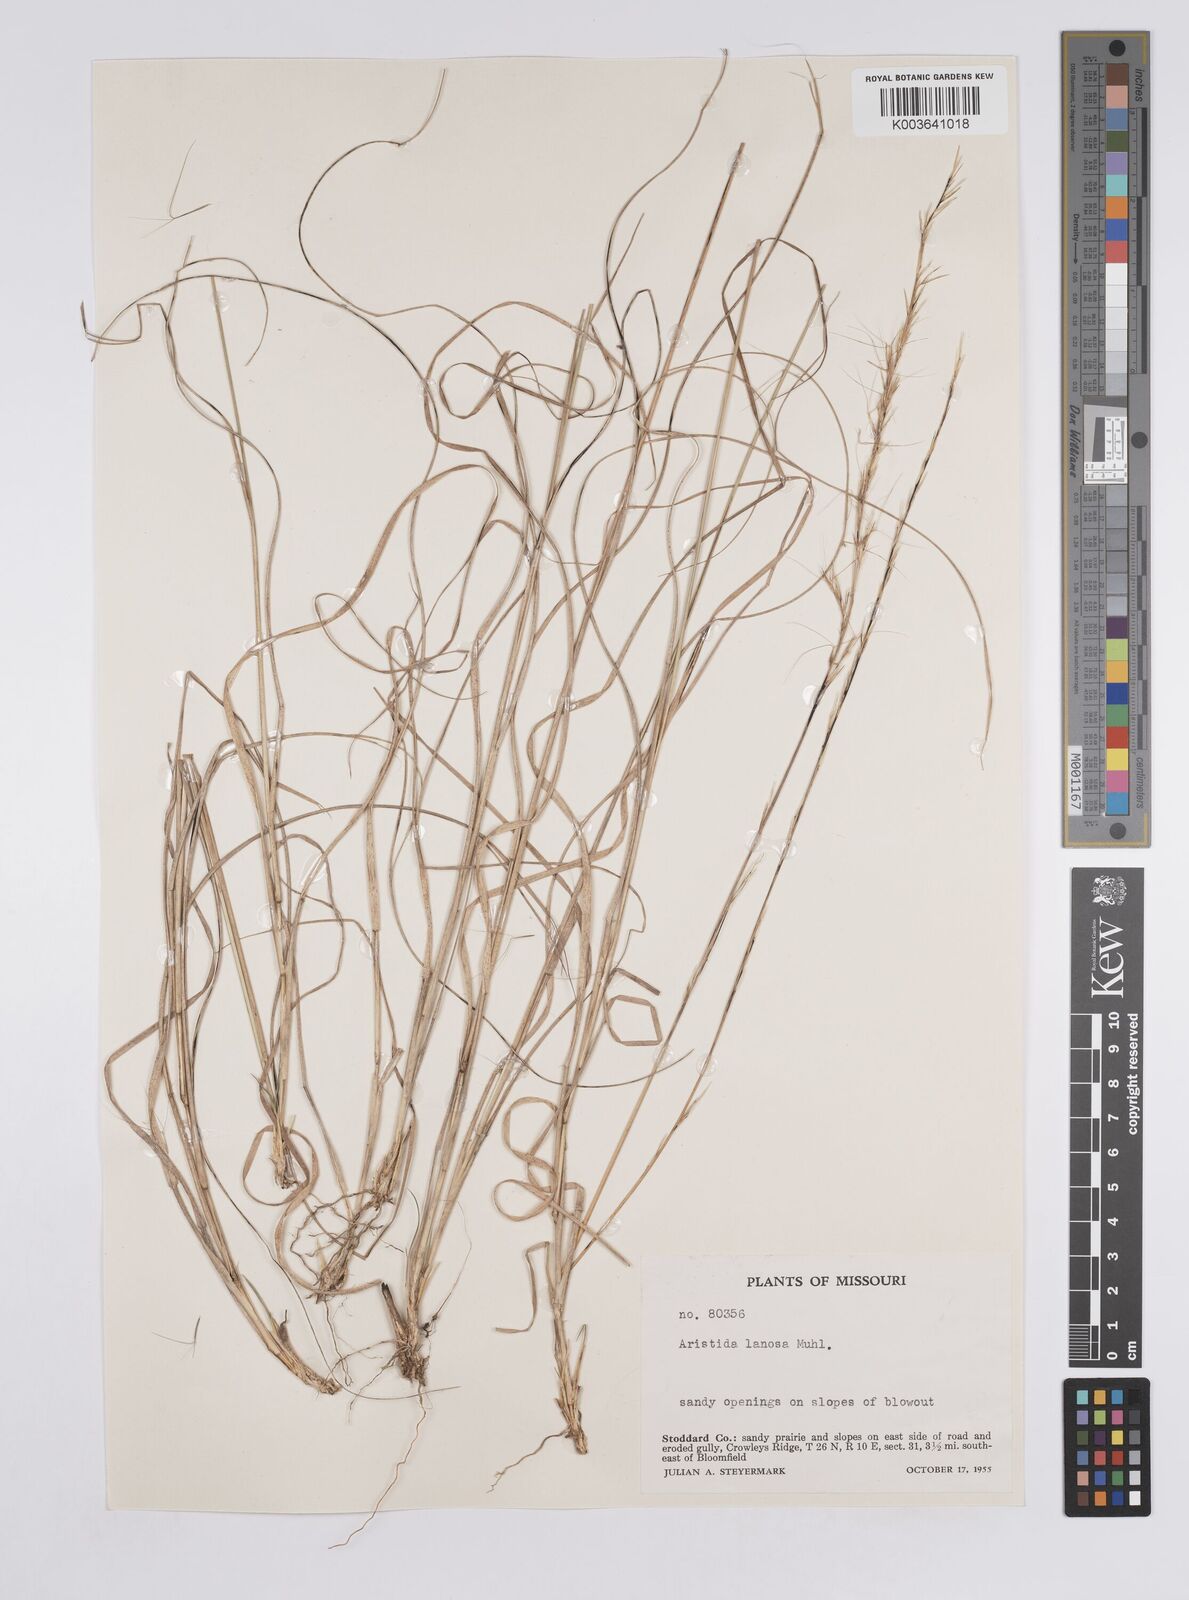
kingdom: Plantae
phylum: Tracheophyta
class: Liliopsida
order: Poales
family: Poaceae
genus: Aristida
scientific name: Aristida lanosa
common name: Woolly three-awn
